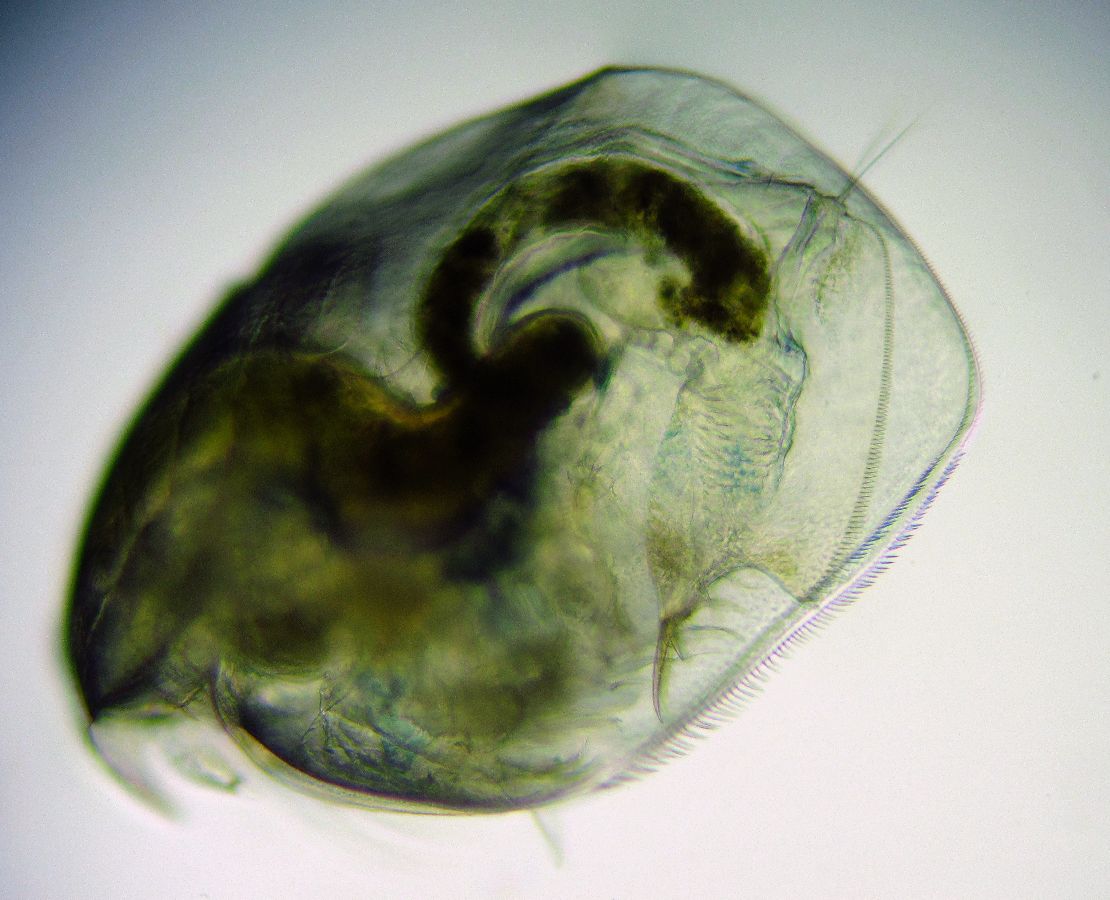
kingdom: Animalia
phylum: Arthropoda
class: Branchiopoda
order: Diplostraca
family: Eurycercidae
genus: Eurycercus
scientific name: Eurycercus glacialis
